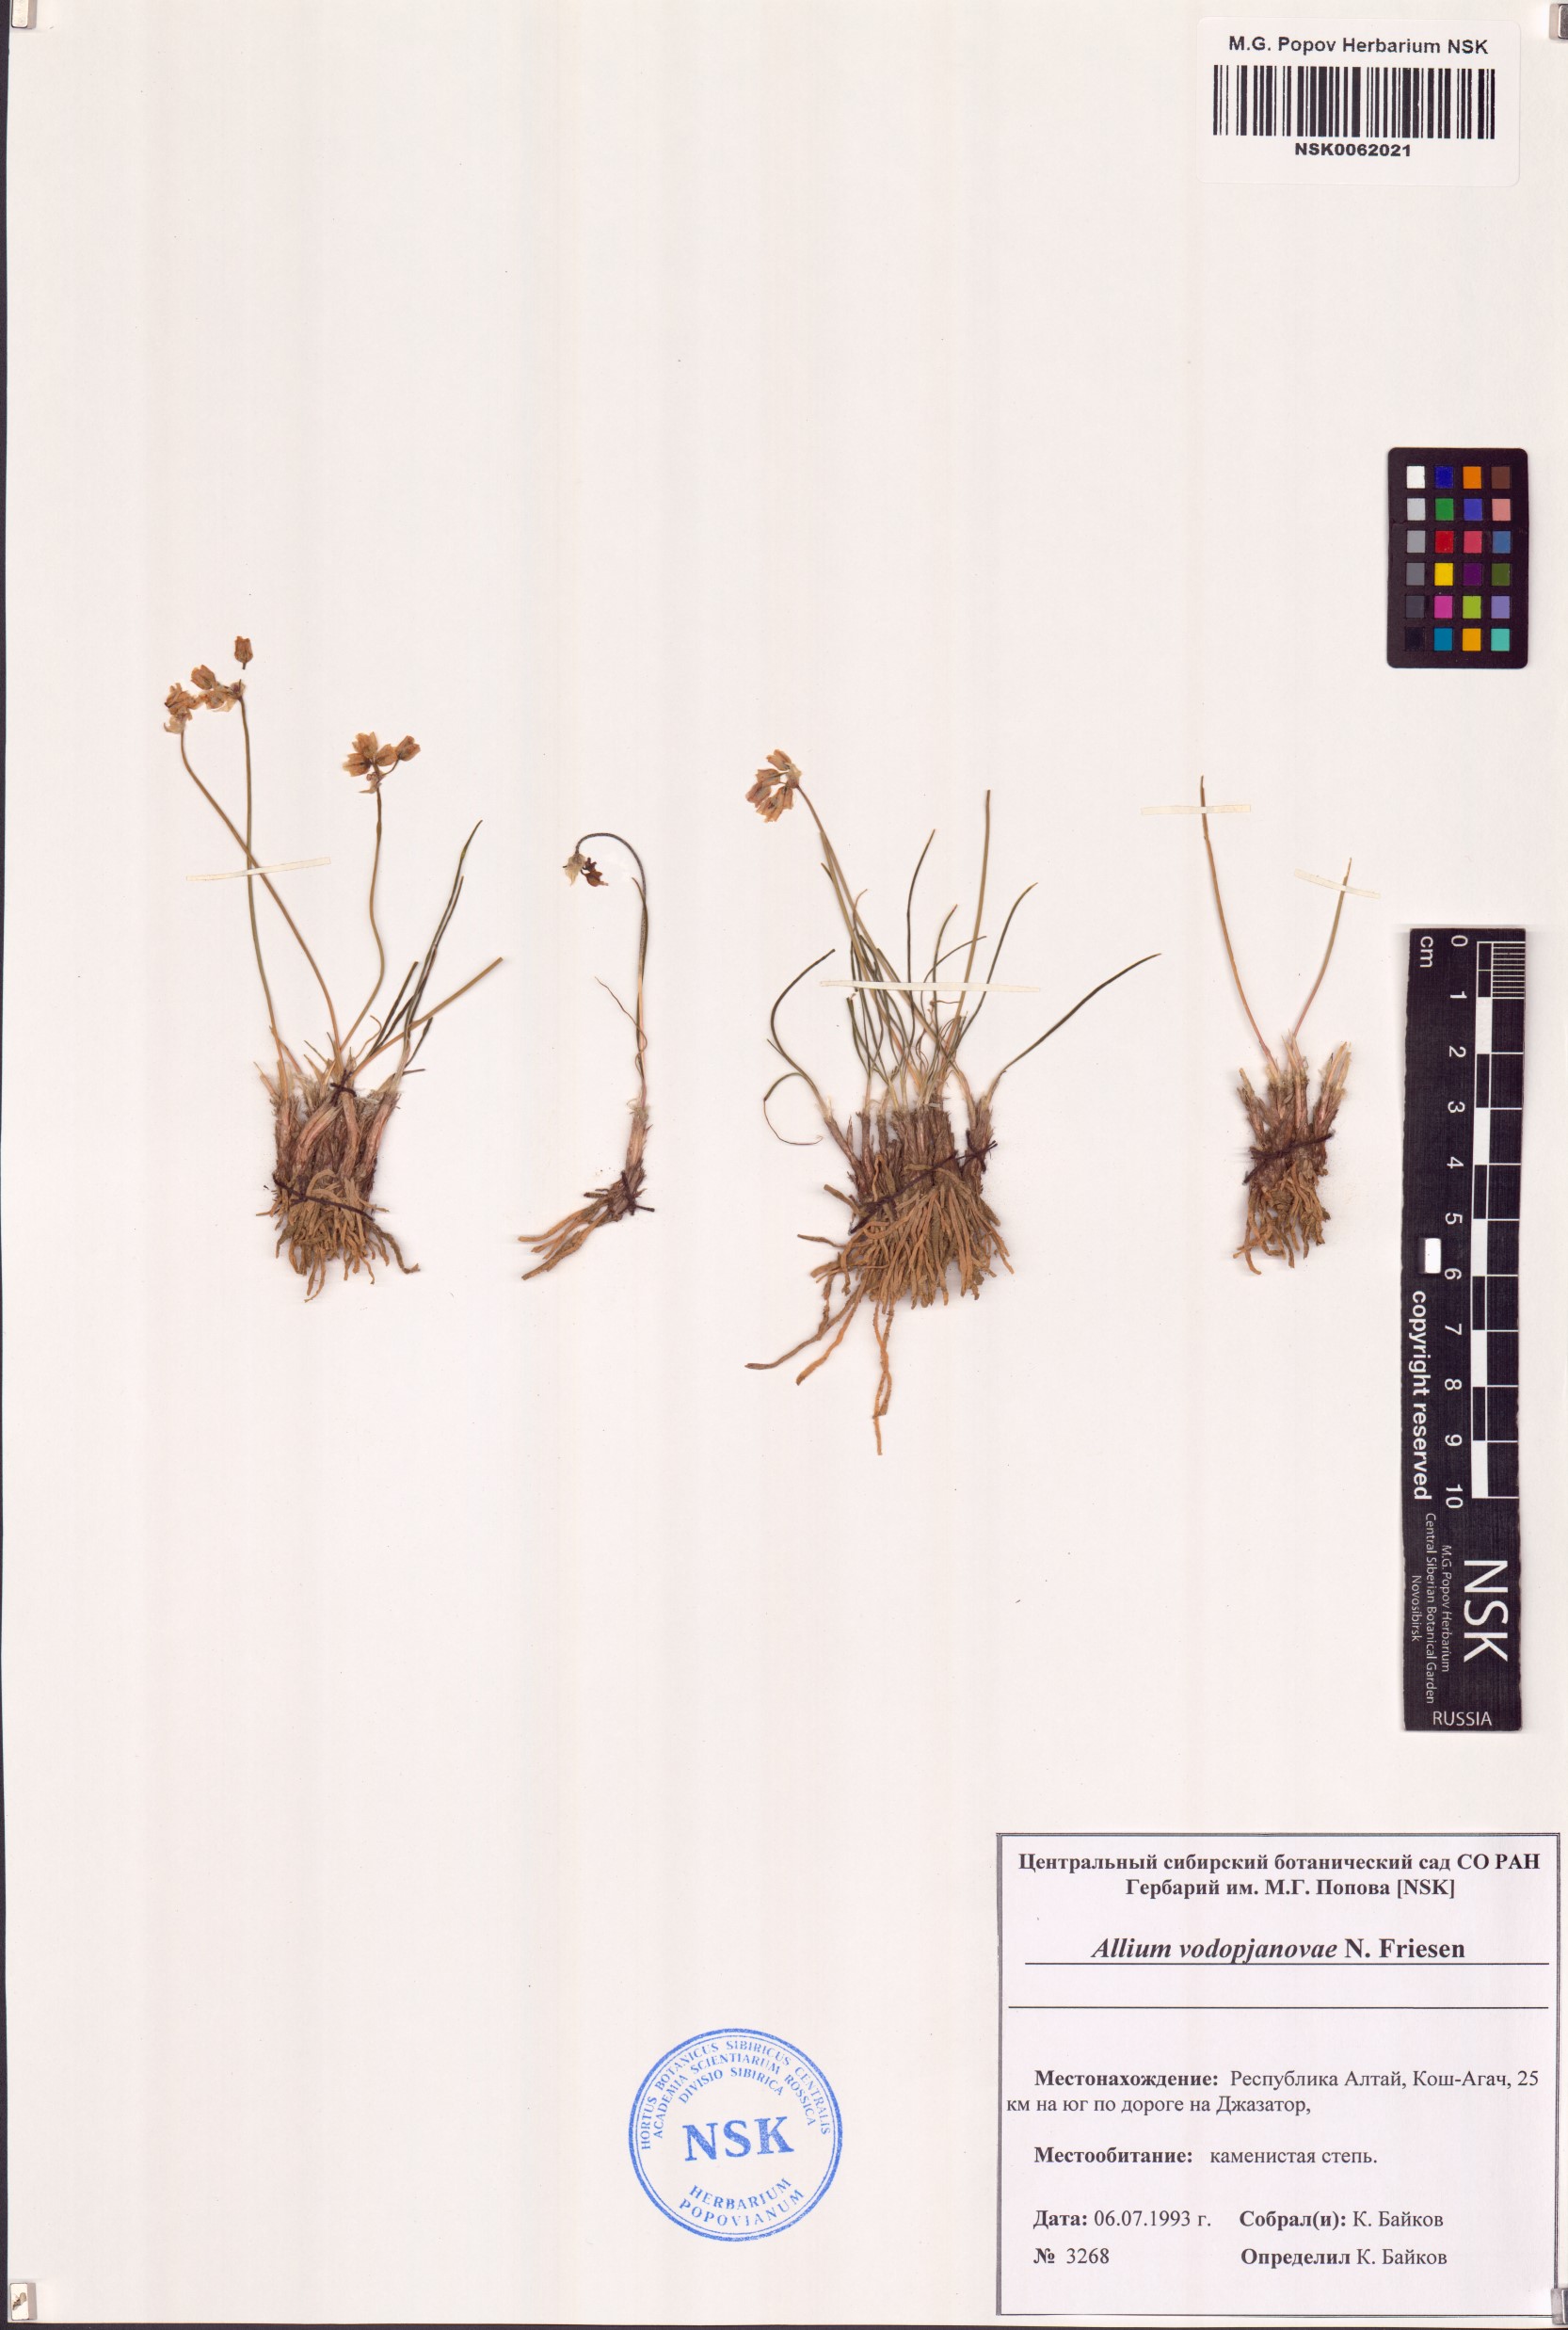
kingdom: Plantae
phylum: Tracheophyta
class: Liliopsida
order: Asparagales
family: Amaryllidaceae
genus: Allium
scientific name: Allium vodopjanovae
